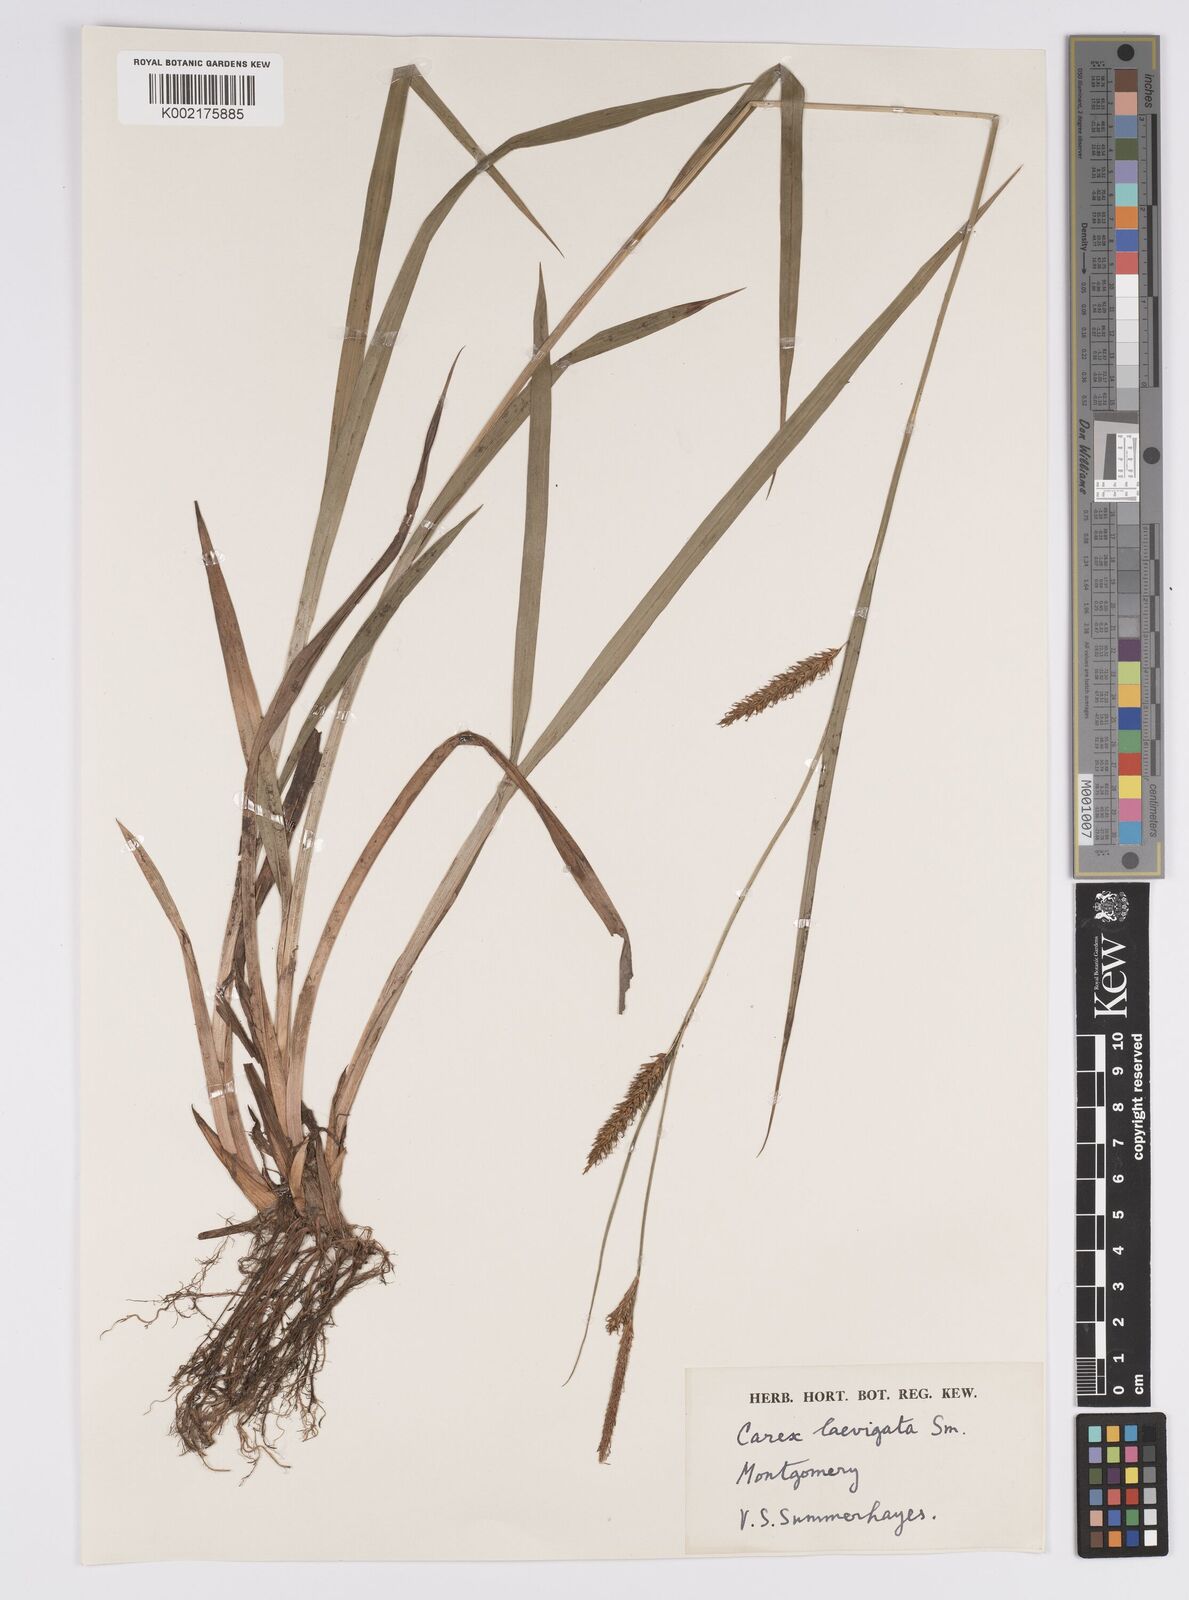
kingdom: Plantae
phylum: Tracheophyta
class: Liliopsida
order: Poales
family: Cyperaceae
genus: Carex
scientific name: Carex laevigata
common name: Smooth-stalked sedge
